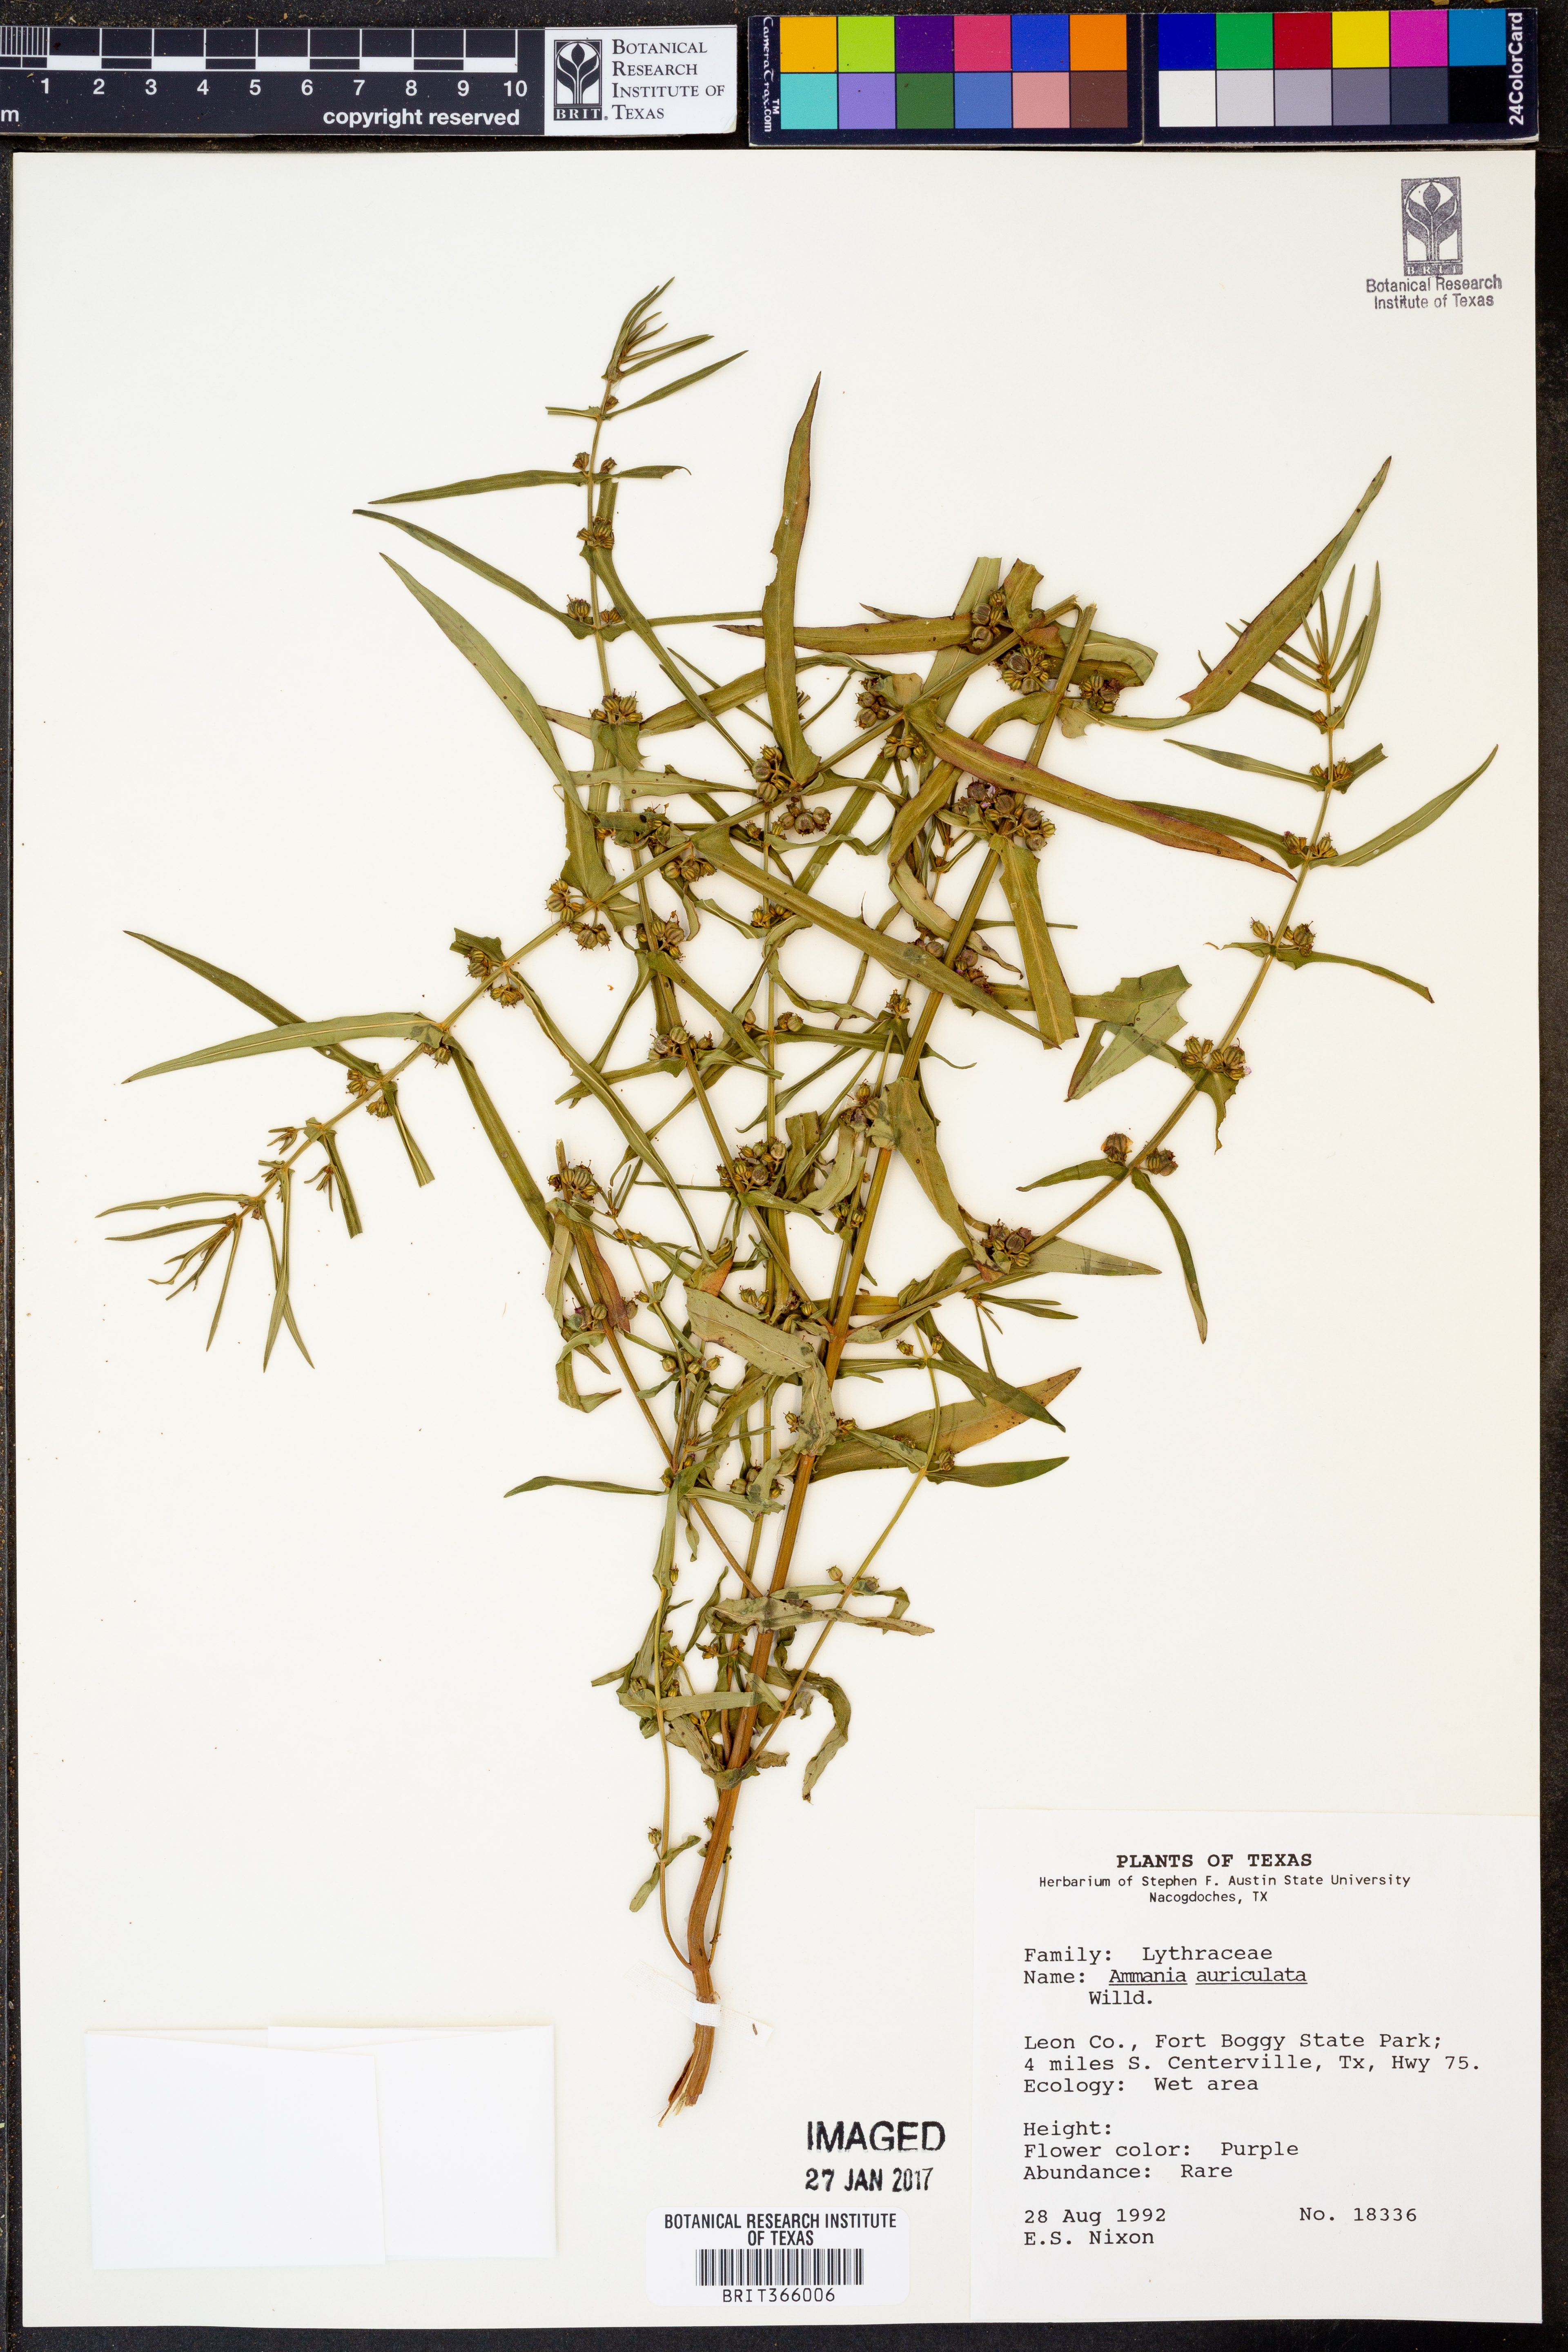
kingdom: Plantae
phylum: Tracheophyta
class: Magnoliopsida
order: Myrtales
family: Lythraceae
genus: Ammannia
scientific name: Ammannia auriculata
